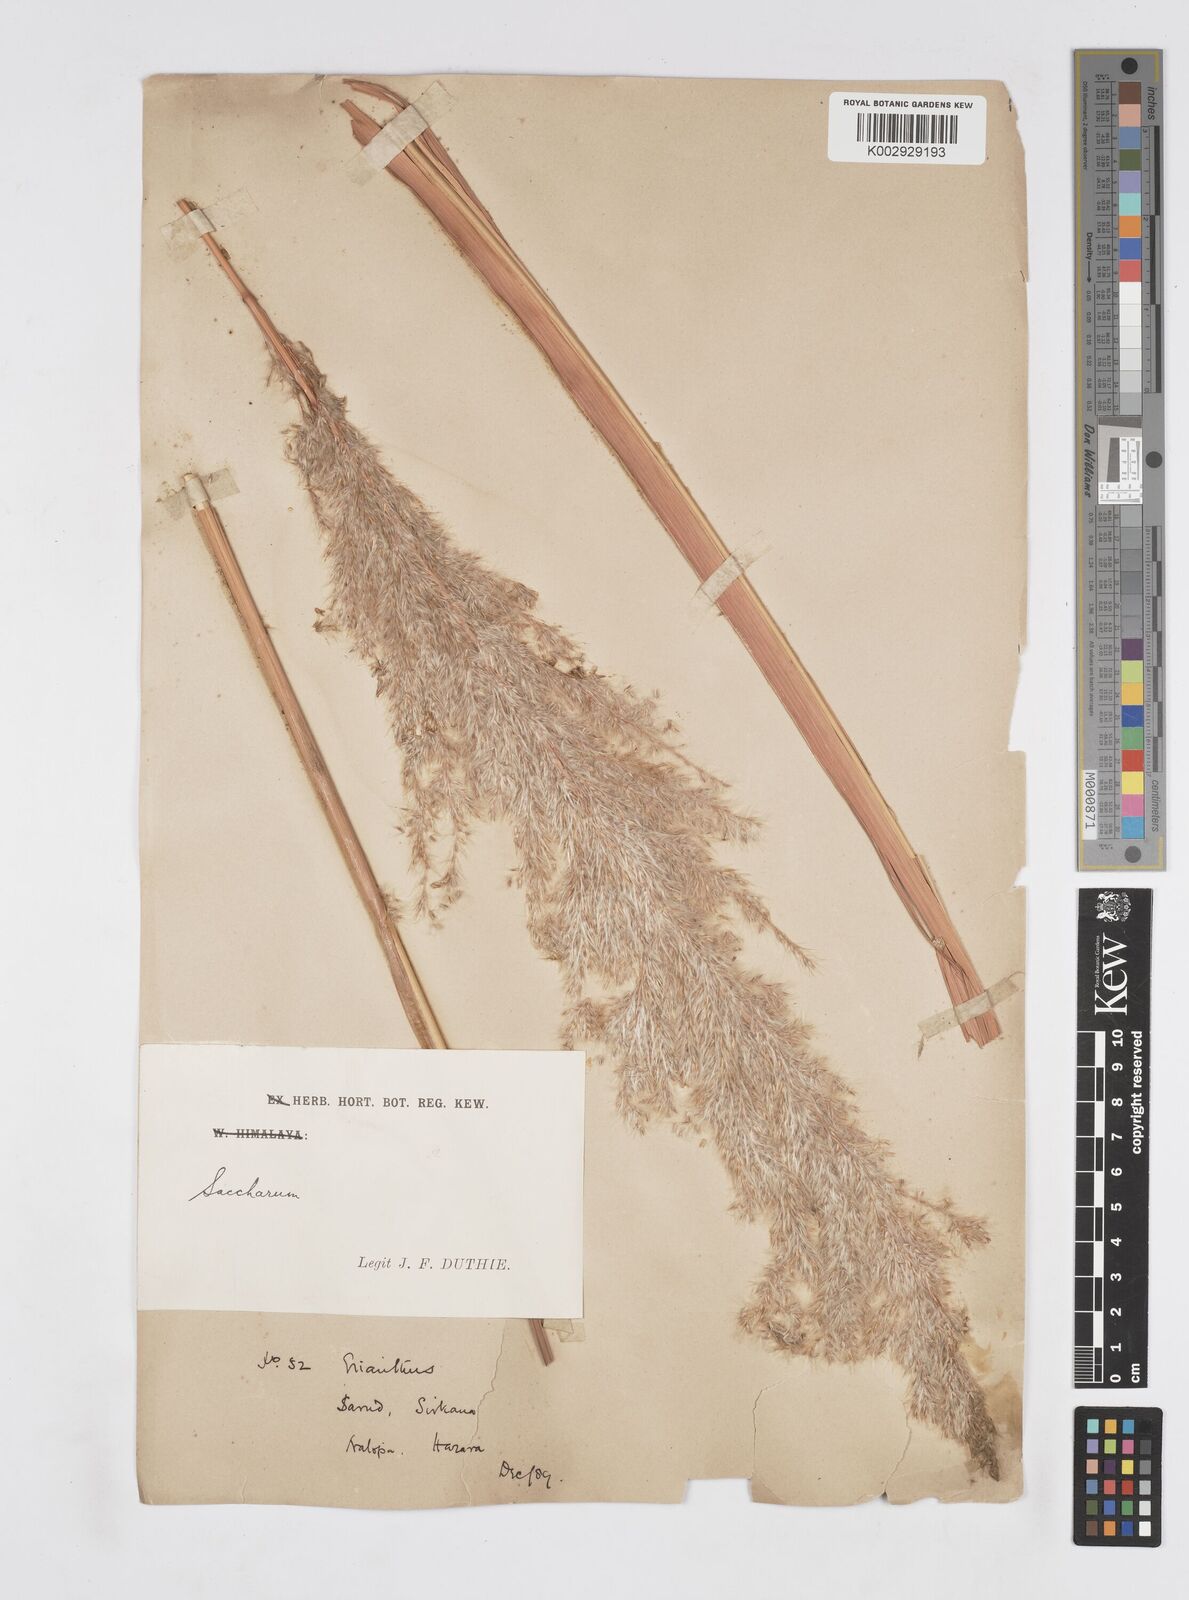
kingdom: Plantae
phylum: Tracheophyta
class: Liliopsida
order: Poales
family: Poaceae
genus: Tripidium
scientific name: Tripidium ravennae
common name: Ravenna grass
